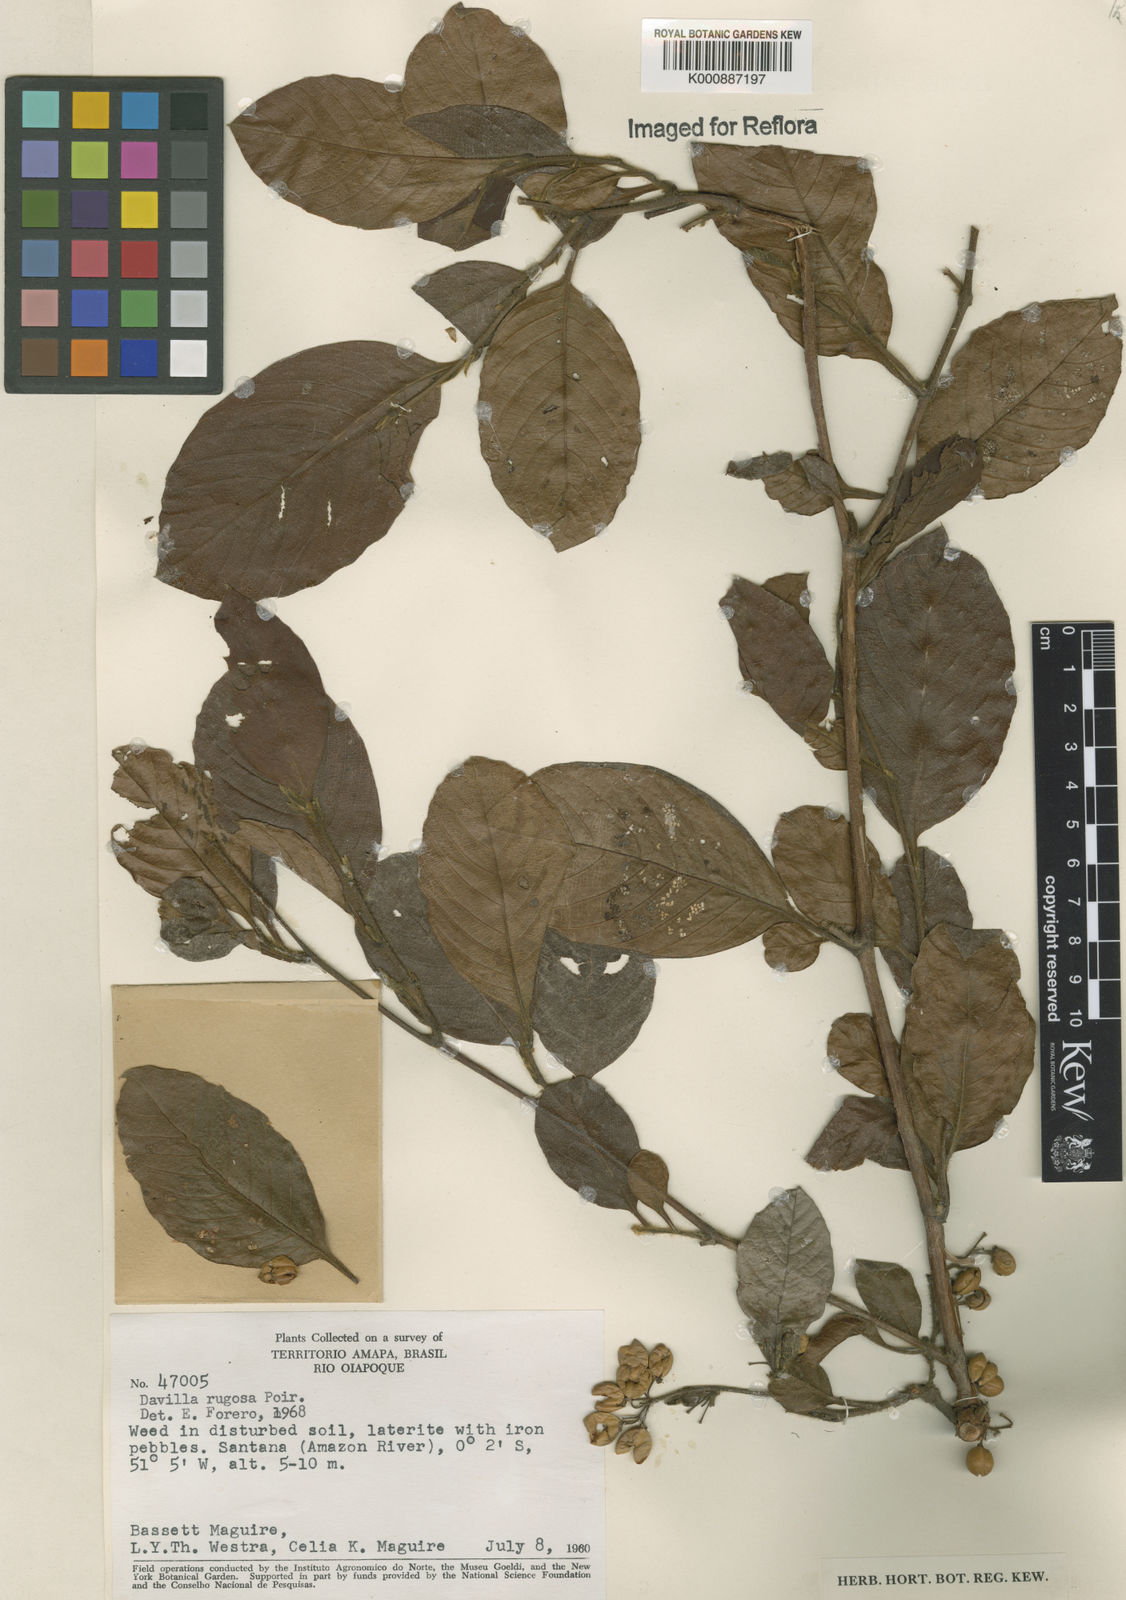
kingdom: Plantae
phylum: Tracheophyta
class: Magnoliopsida
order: Dilleniales
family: Dilleniaceae
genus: Davilla
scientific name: Davilla rugosa
